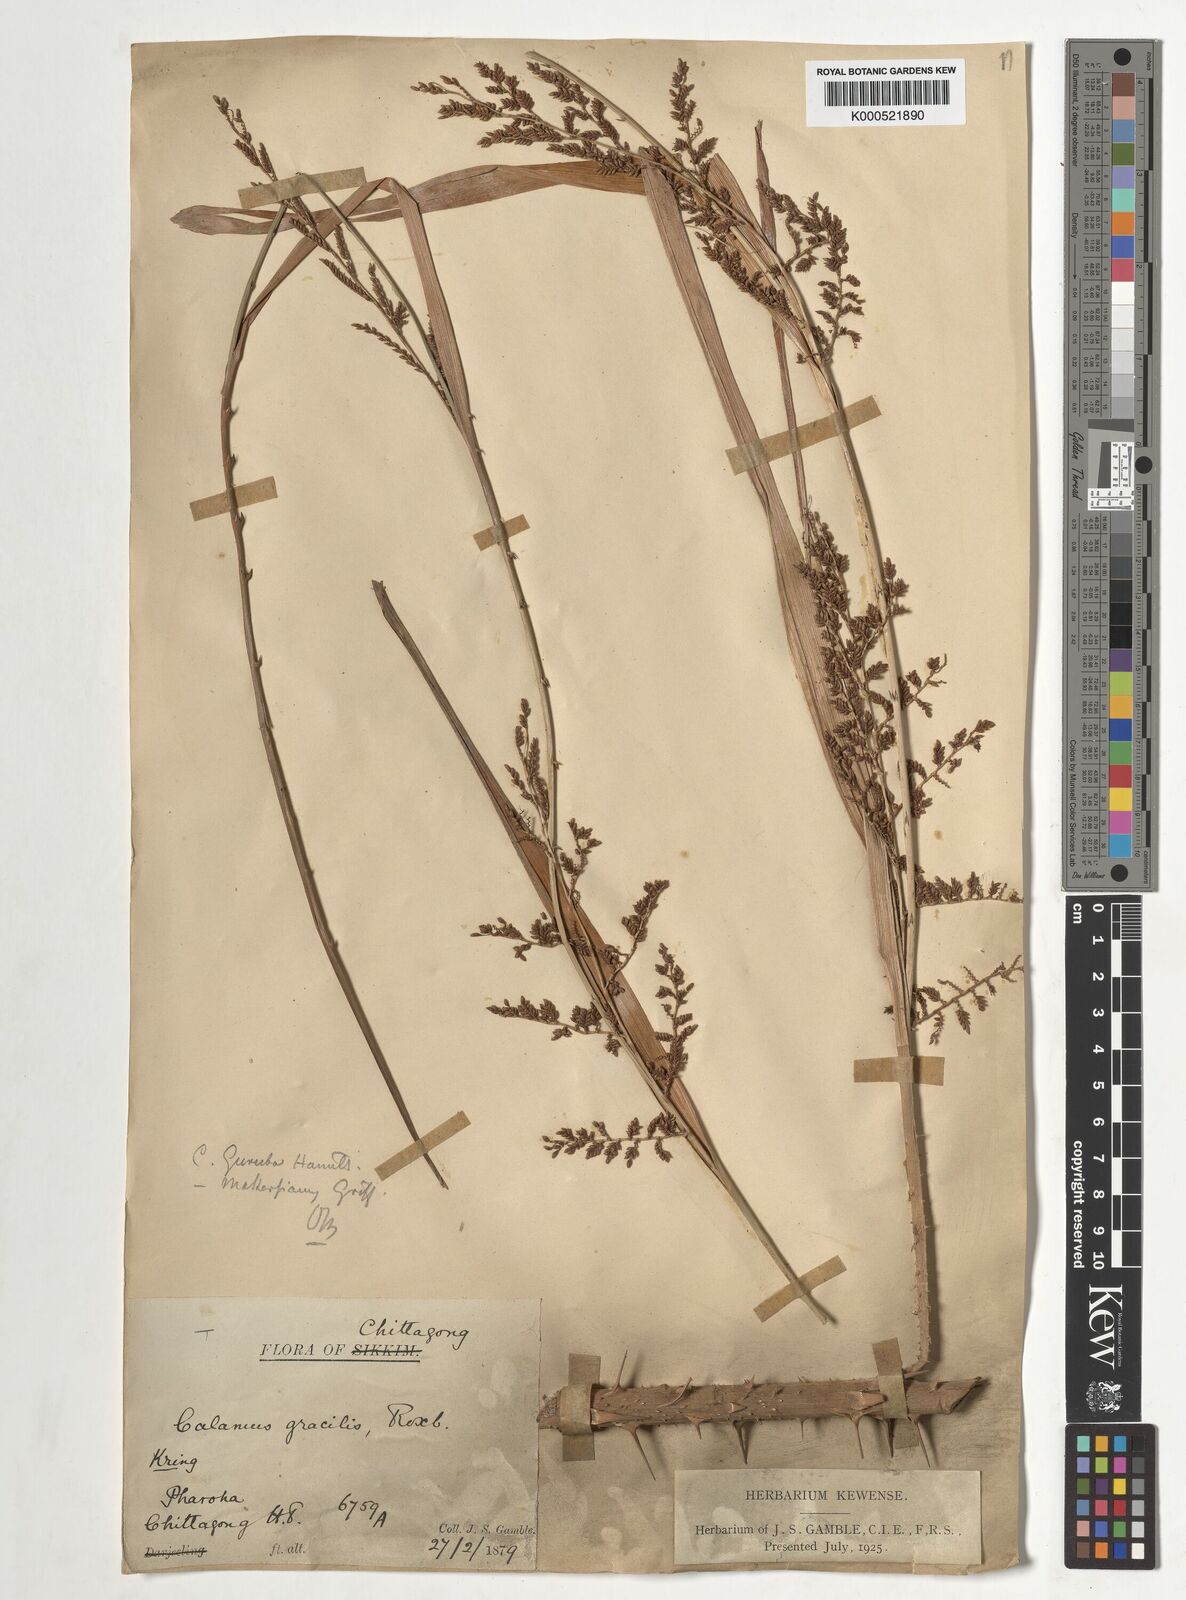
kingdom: Plantae
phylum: Tracheophyta
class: Liliopsida
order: Arecales
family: Arecaceae
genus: Calamus
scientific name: Calamus
